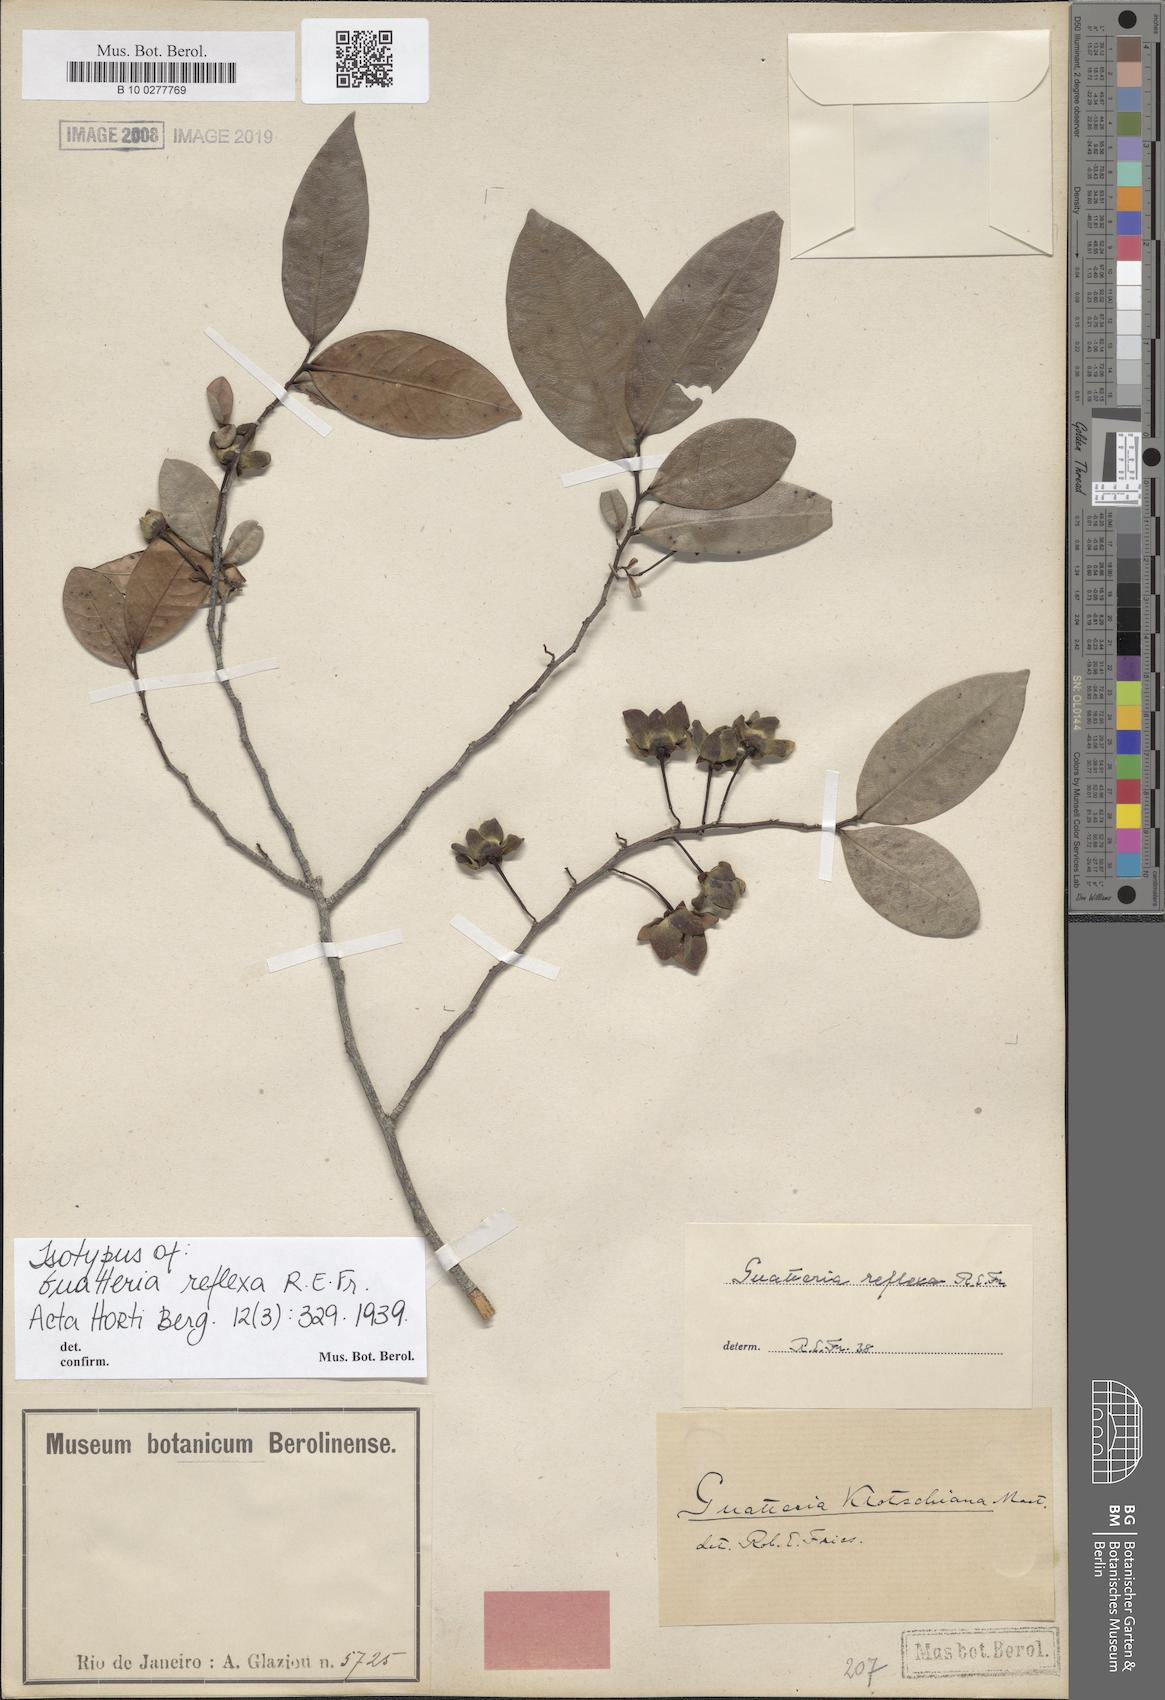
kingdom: Plantae
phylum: Tracheophyta
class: Magnoliopsida
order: Magnoliales
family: Annonaceae
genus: Guatteria
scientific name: Guatteria australis
